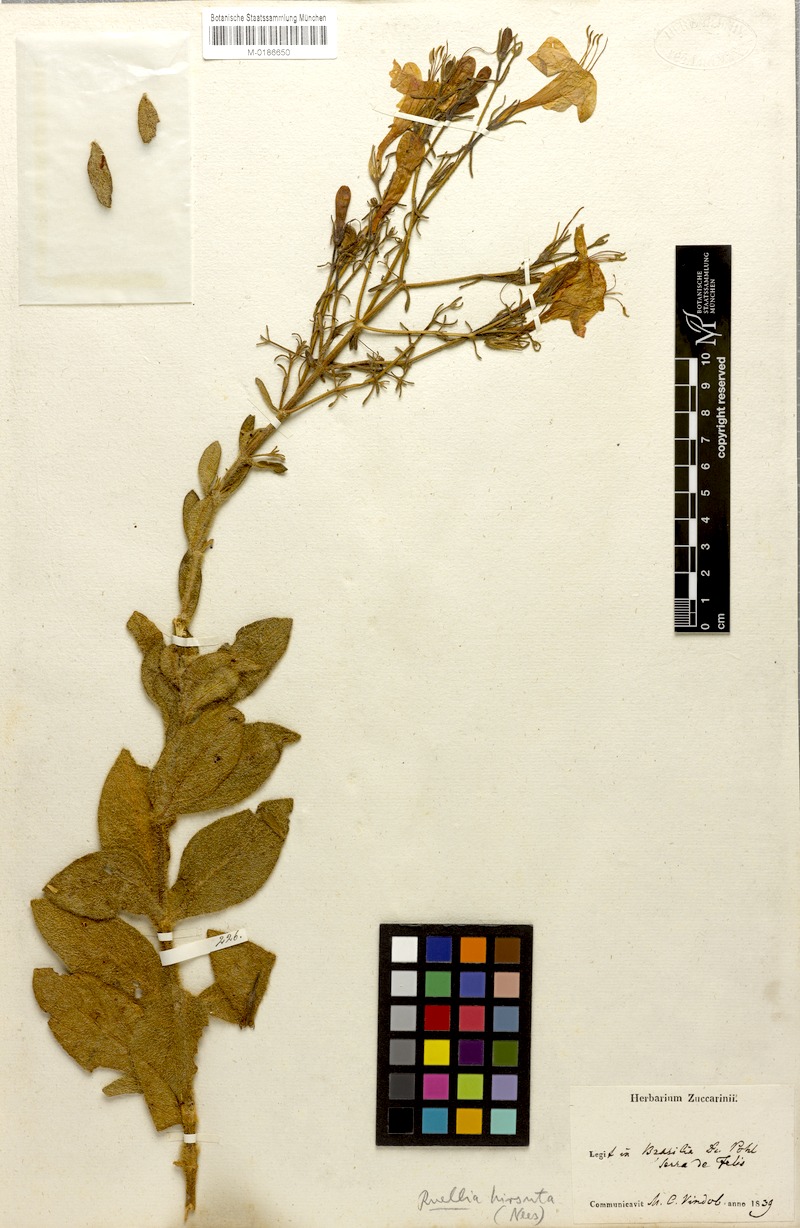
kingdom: Plantae
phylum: Tracheophyta
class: Magnoliopsida
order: Lamiales
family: Acanthaceae
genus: Strobilanthes
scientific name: Strobilanthes brunelloides
